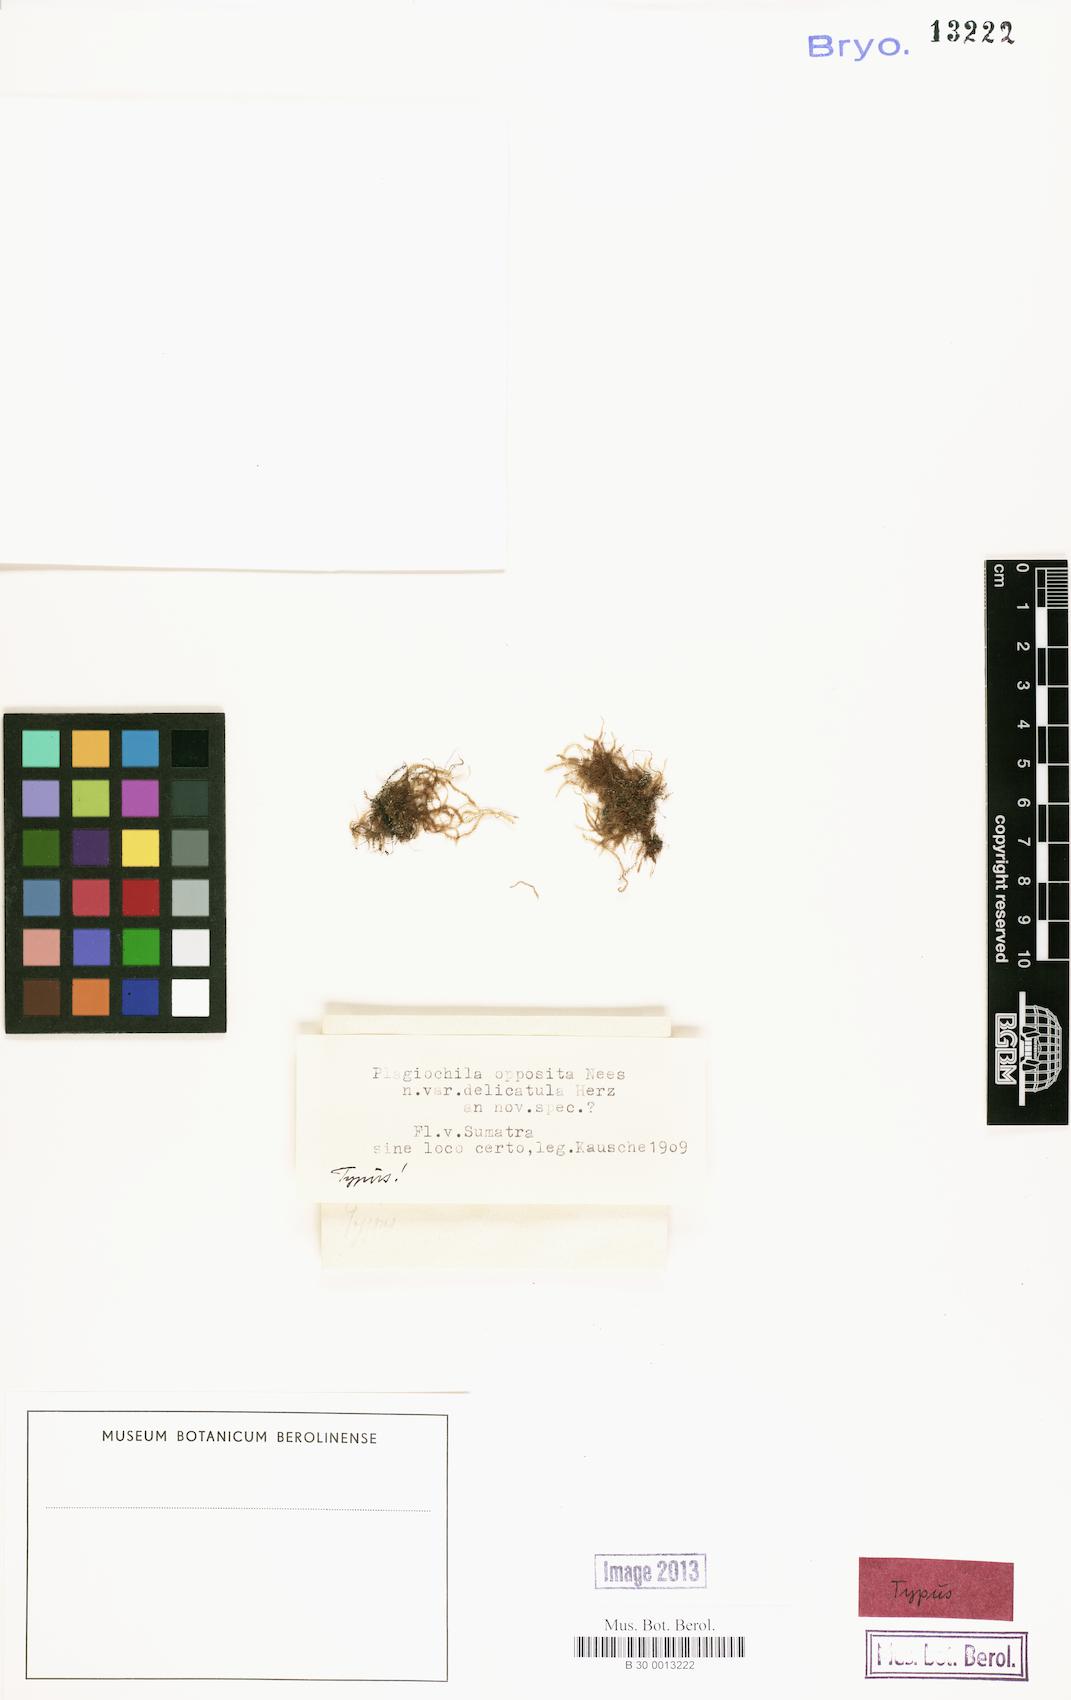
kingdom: Plantae
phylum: Marchantiophyta
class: Jungermanniopsida
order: Jungermanniales
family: Plagiochilaceae
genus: Chiastocaulon
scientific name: Chiastocaulon oppositum
